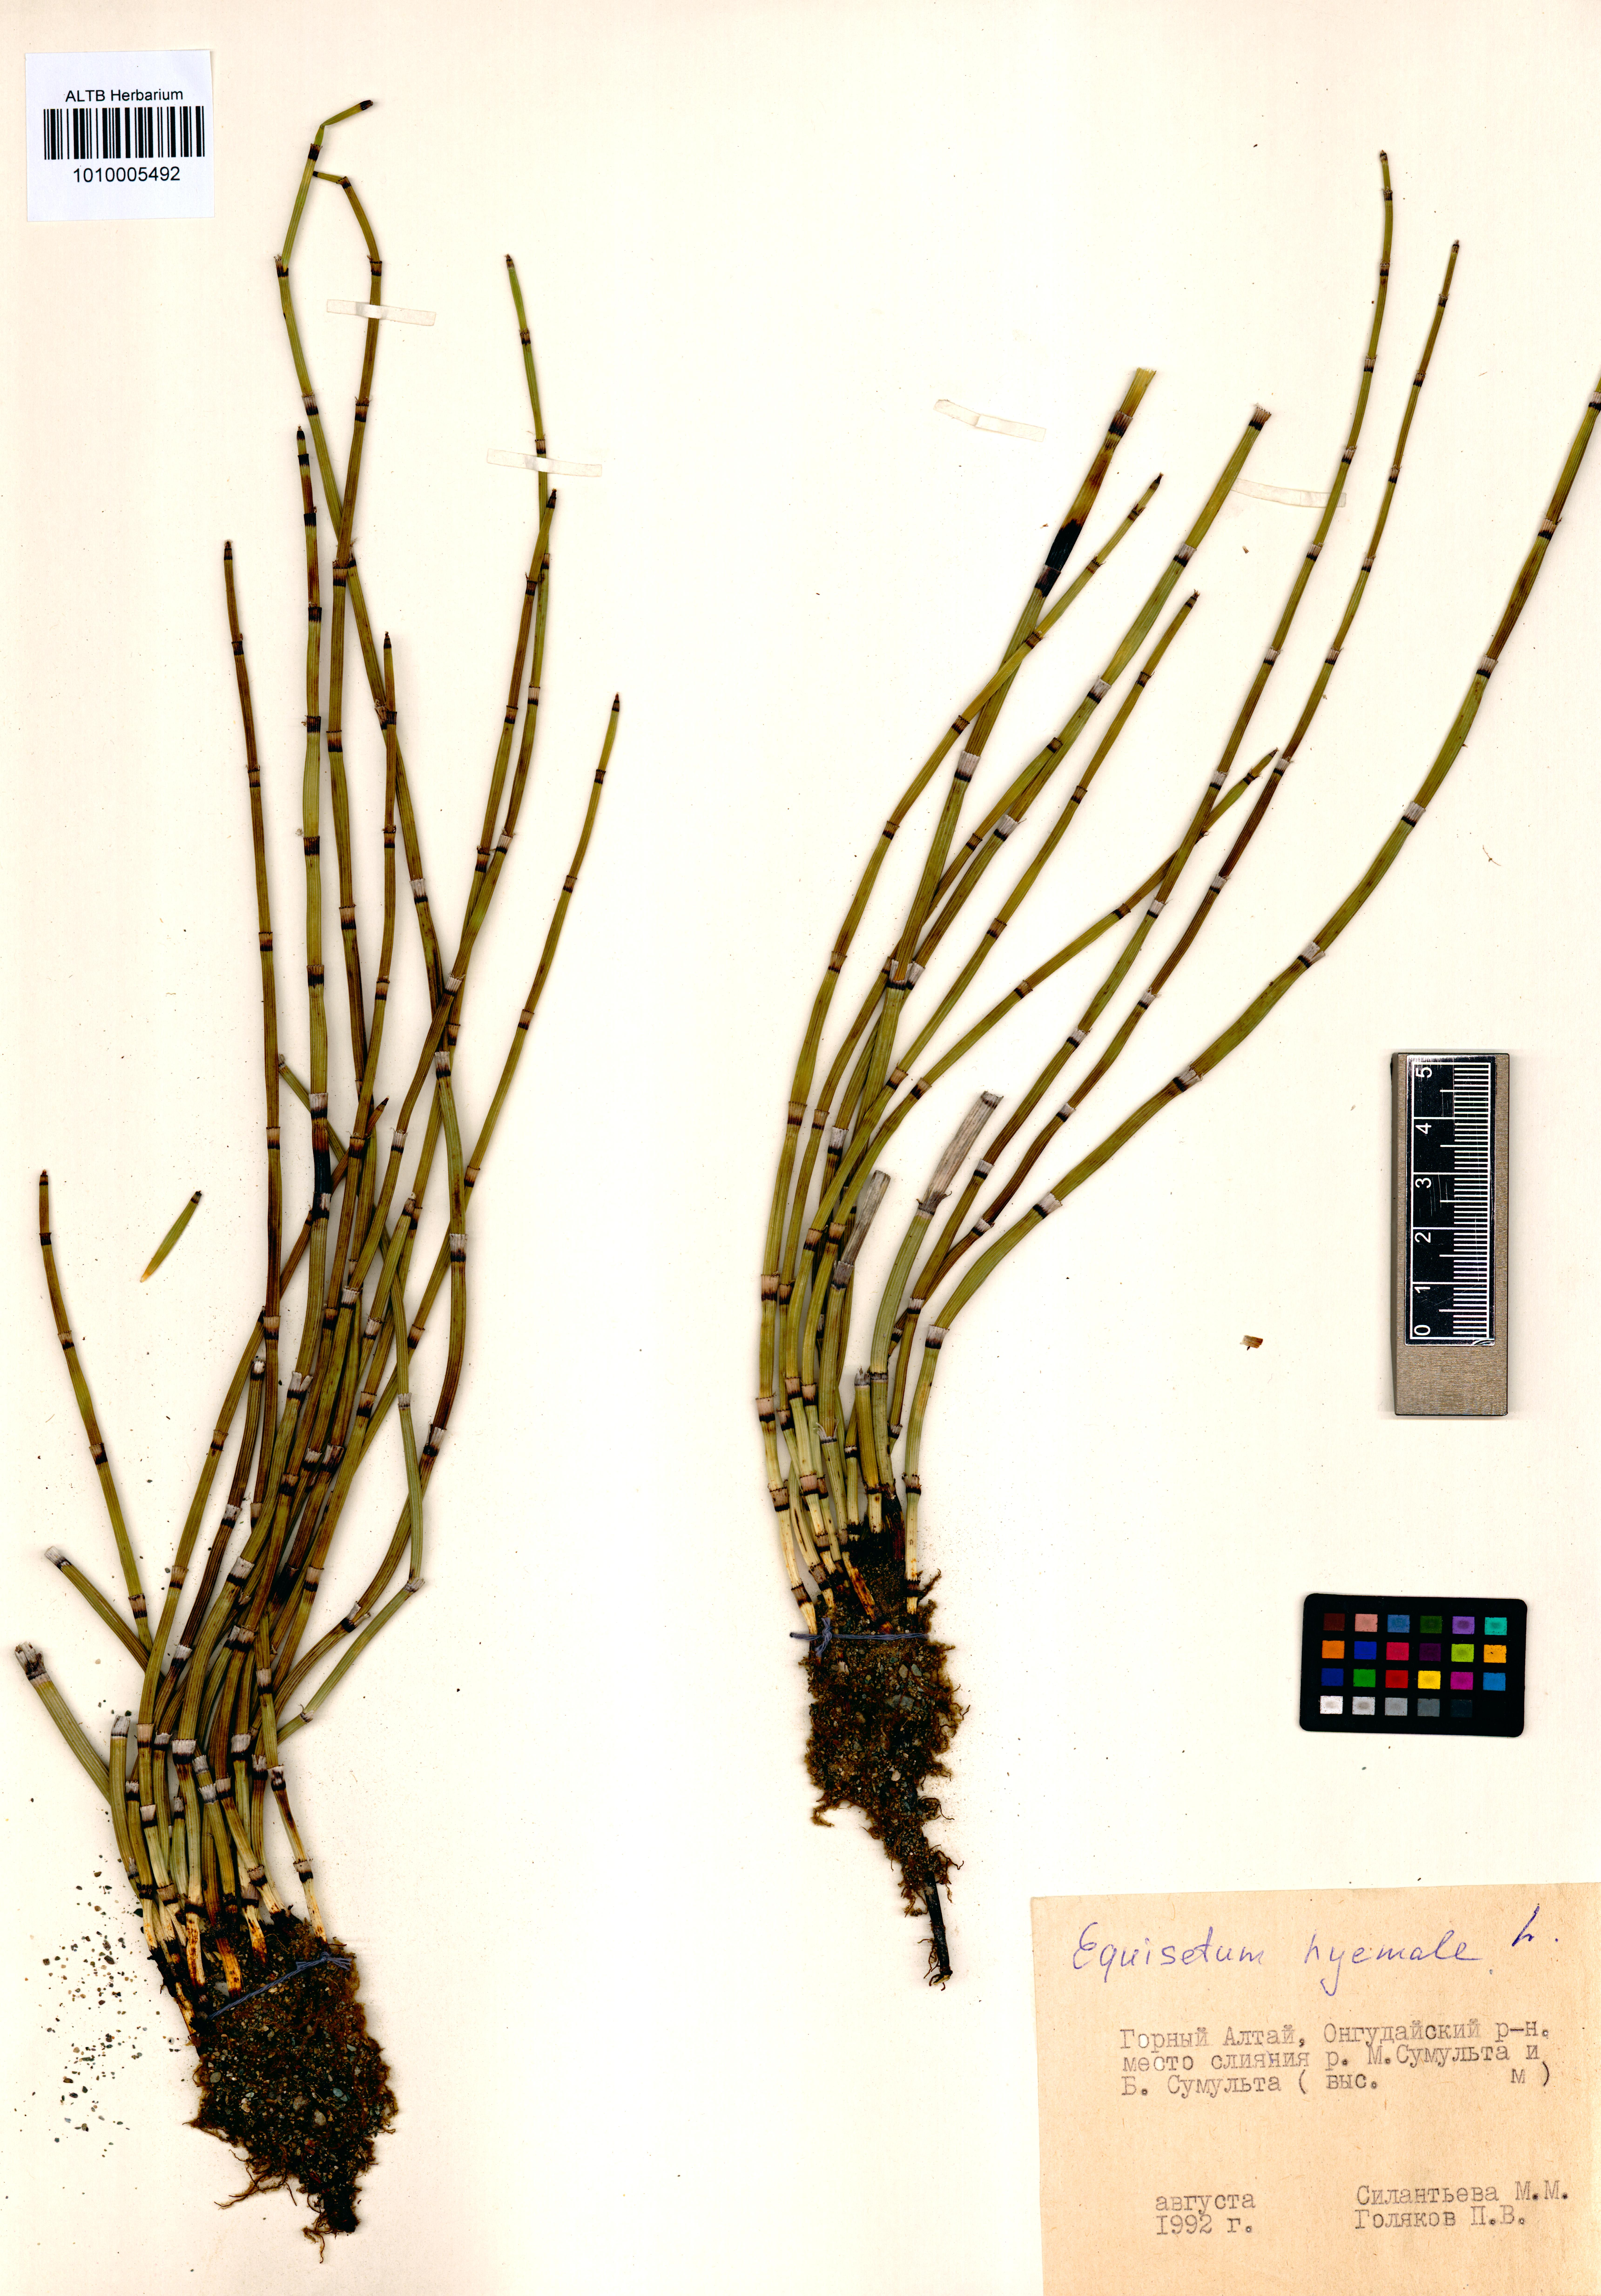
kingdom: Plantae
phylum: Tracheophyta
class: Polypodiopsida
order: Equisetales
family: Equisetaceae
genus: Equisetum
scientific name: Equisetum hyemale
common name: Rough horsetail
